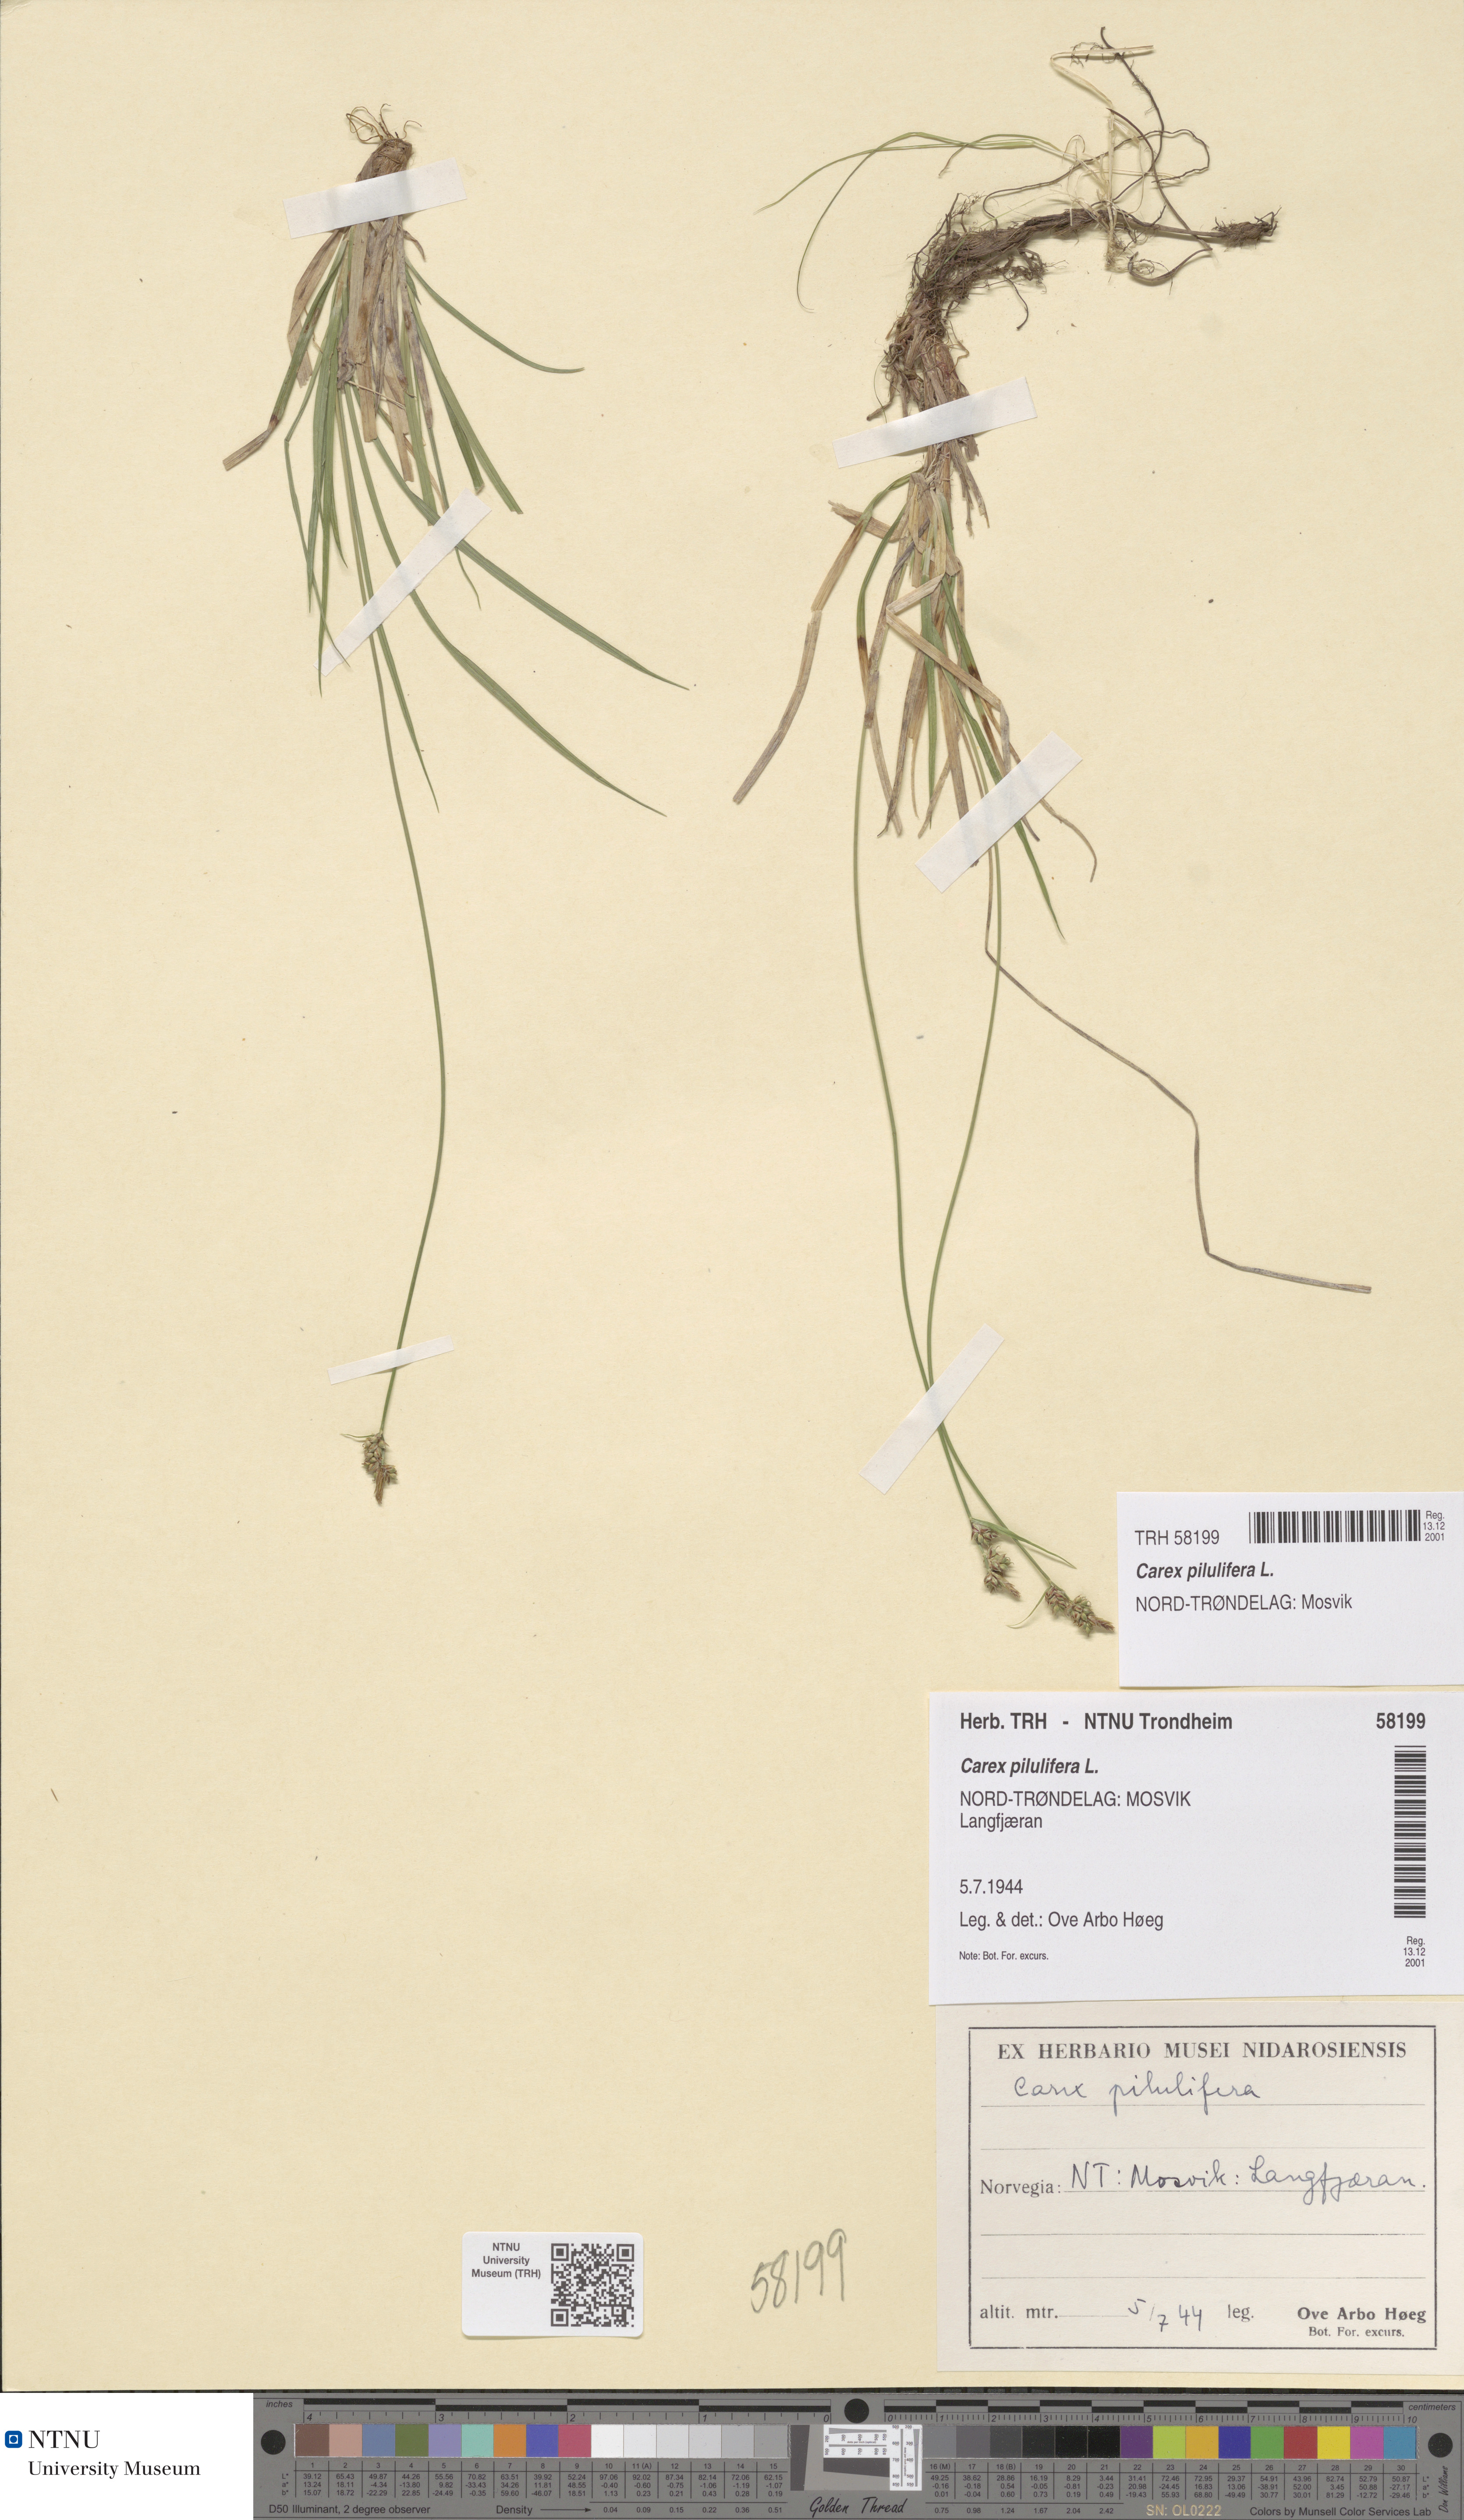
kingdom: Plantae
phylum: Tracheophyta
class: Liliopsida
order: Poales
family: Cyperaceae
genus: Carex
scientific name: Carex pilulifera
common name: Pill sedge
